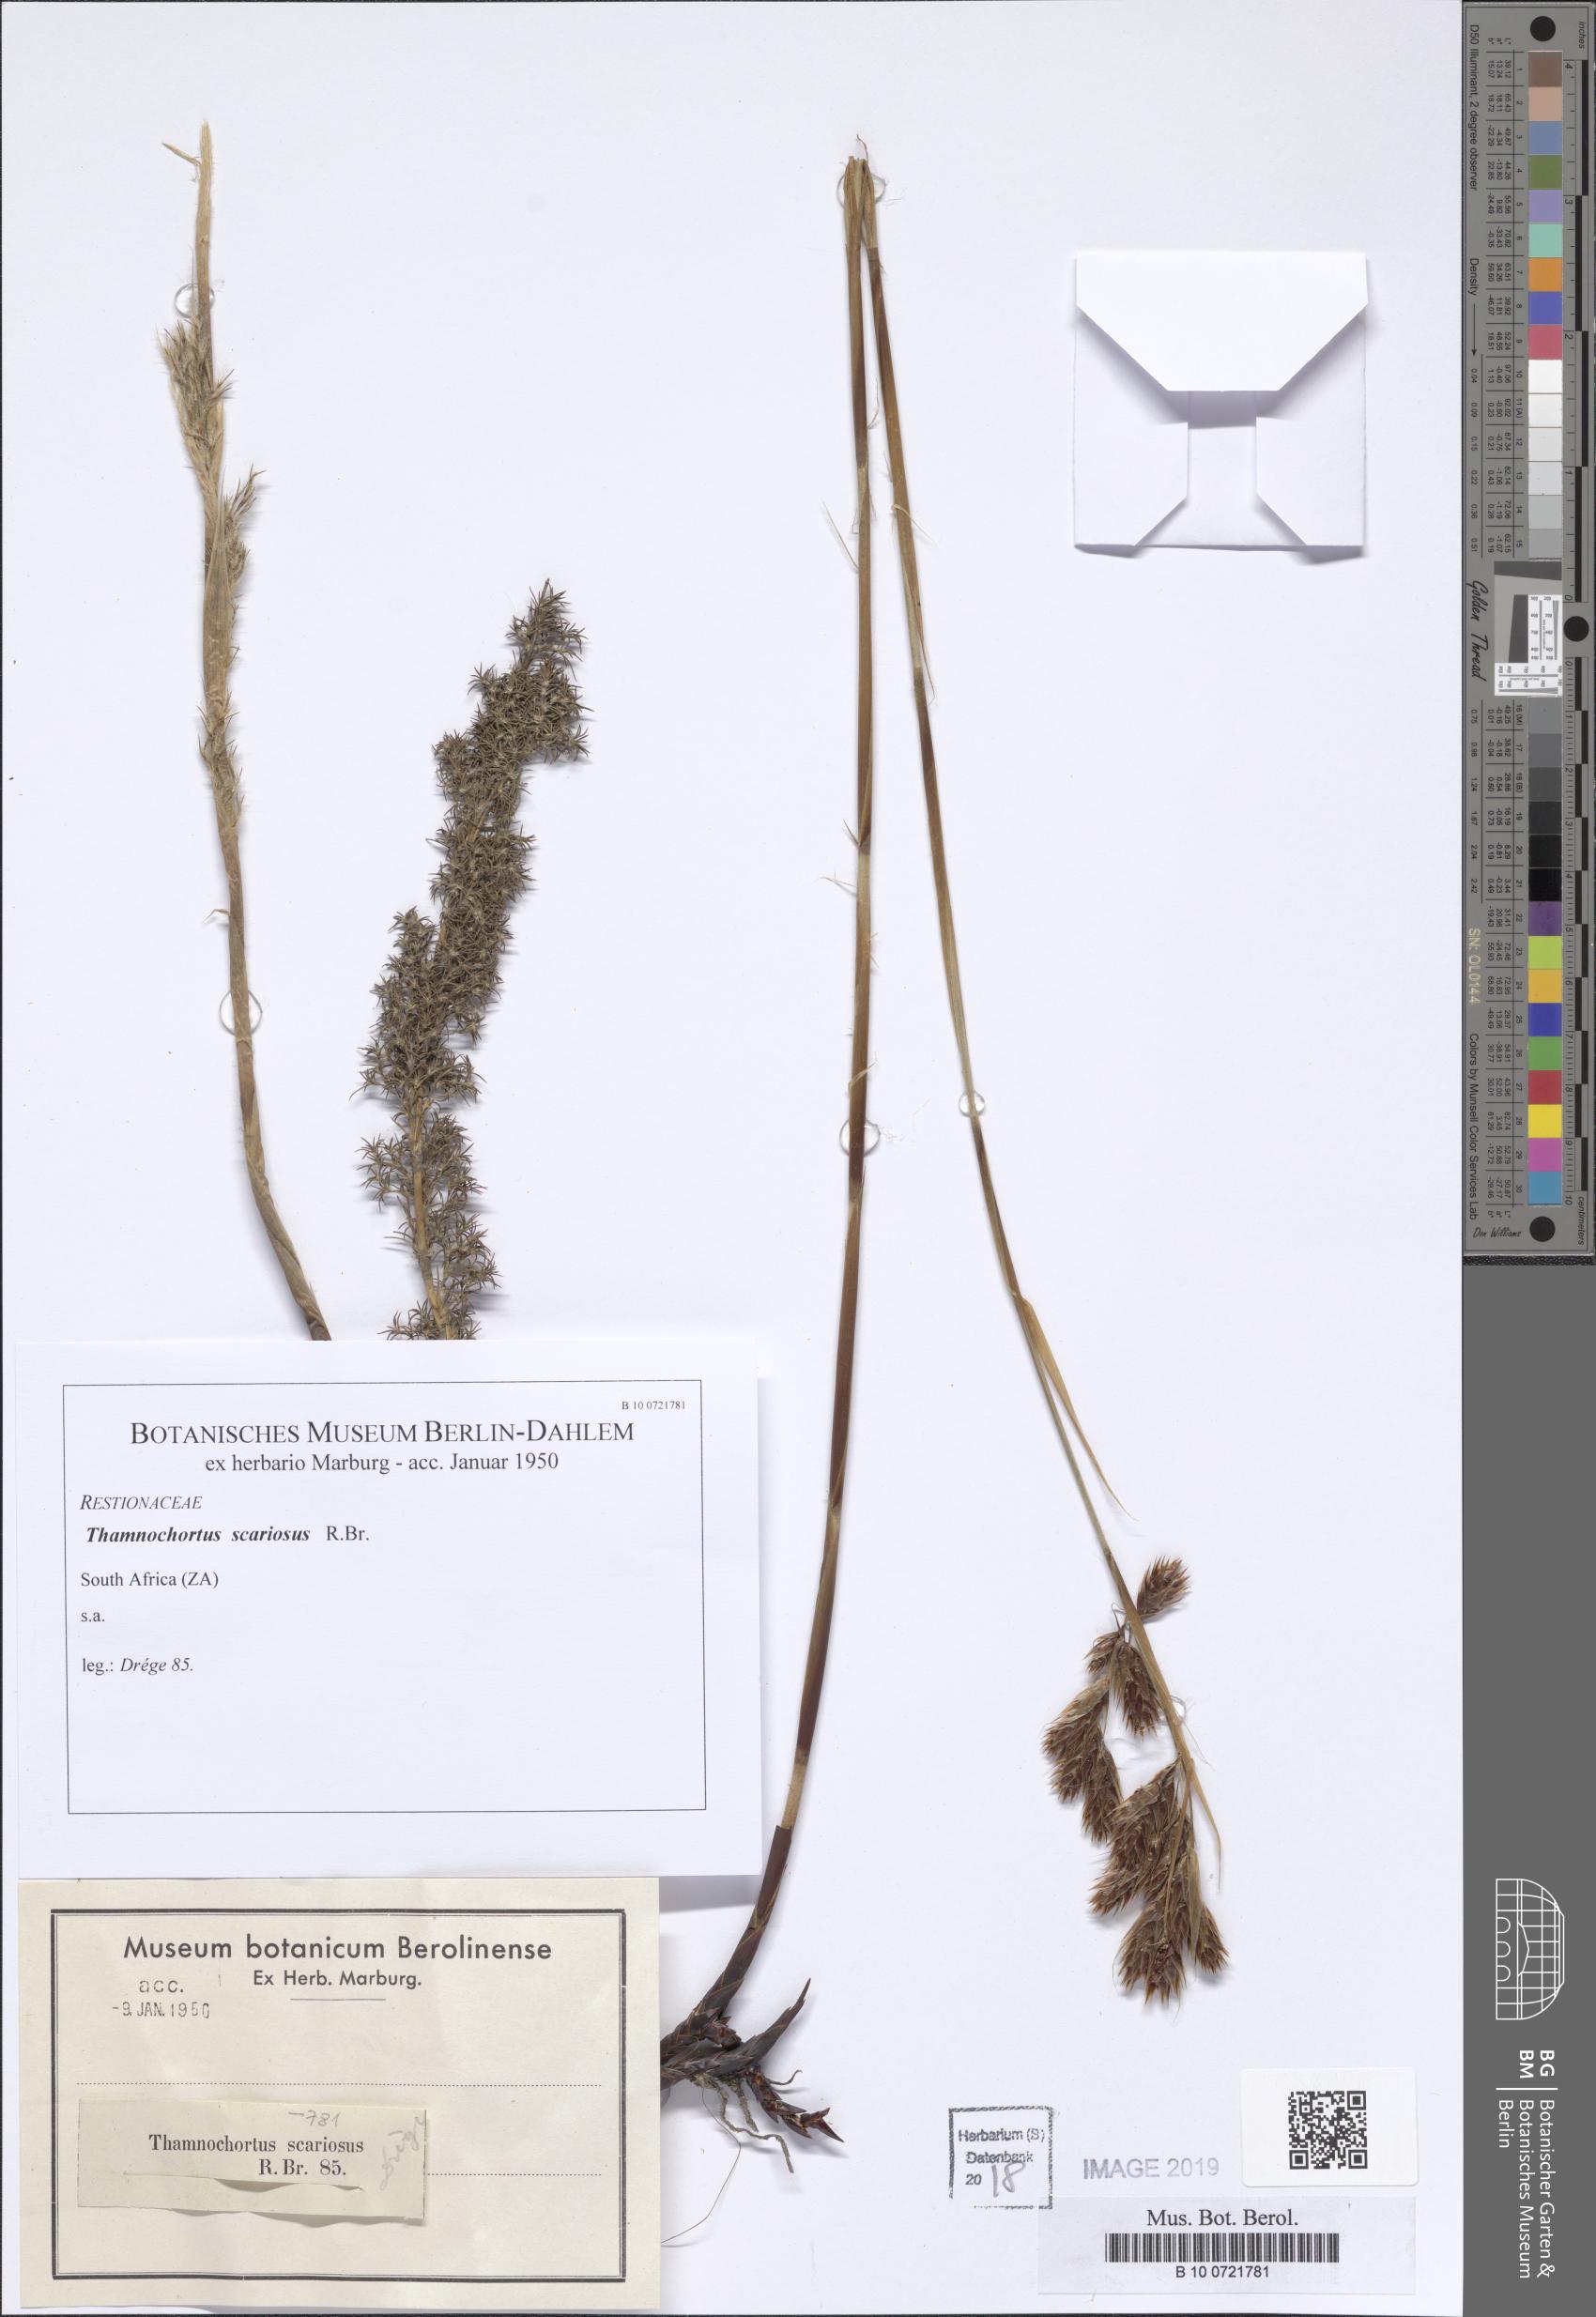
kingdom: Plantae
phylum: Tracheophyta
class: Liliopsida
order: Poales
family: Restionaceae
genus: Thamnochortus
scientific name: Thamnochortus fruticosus
